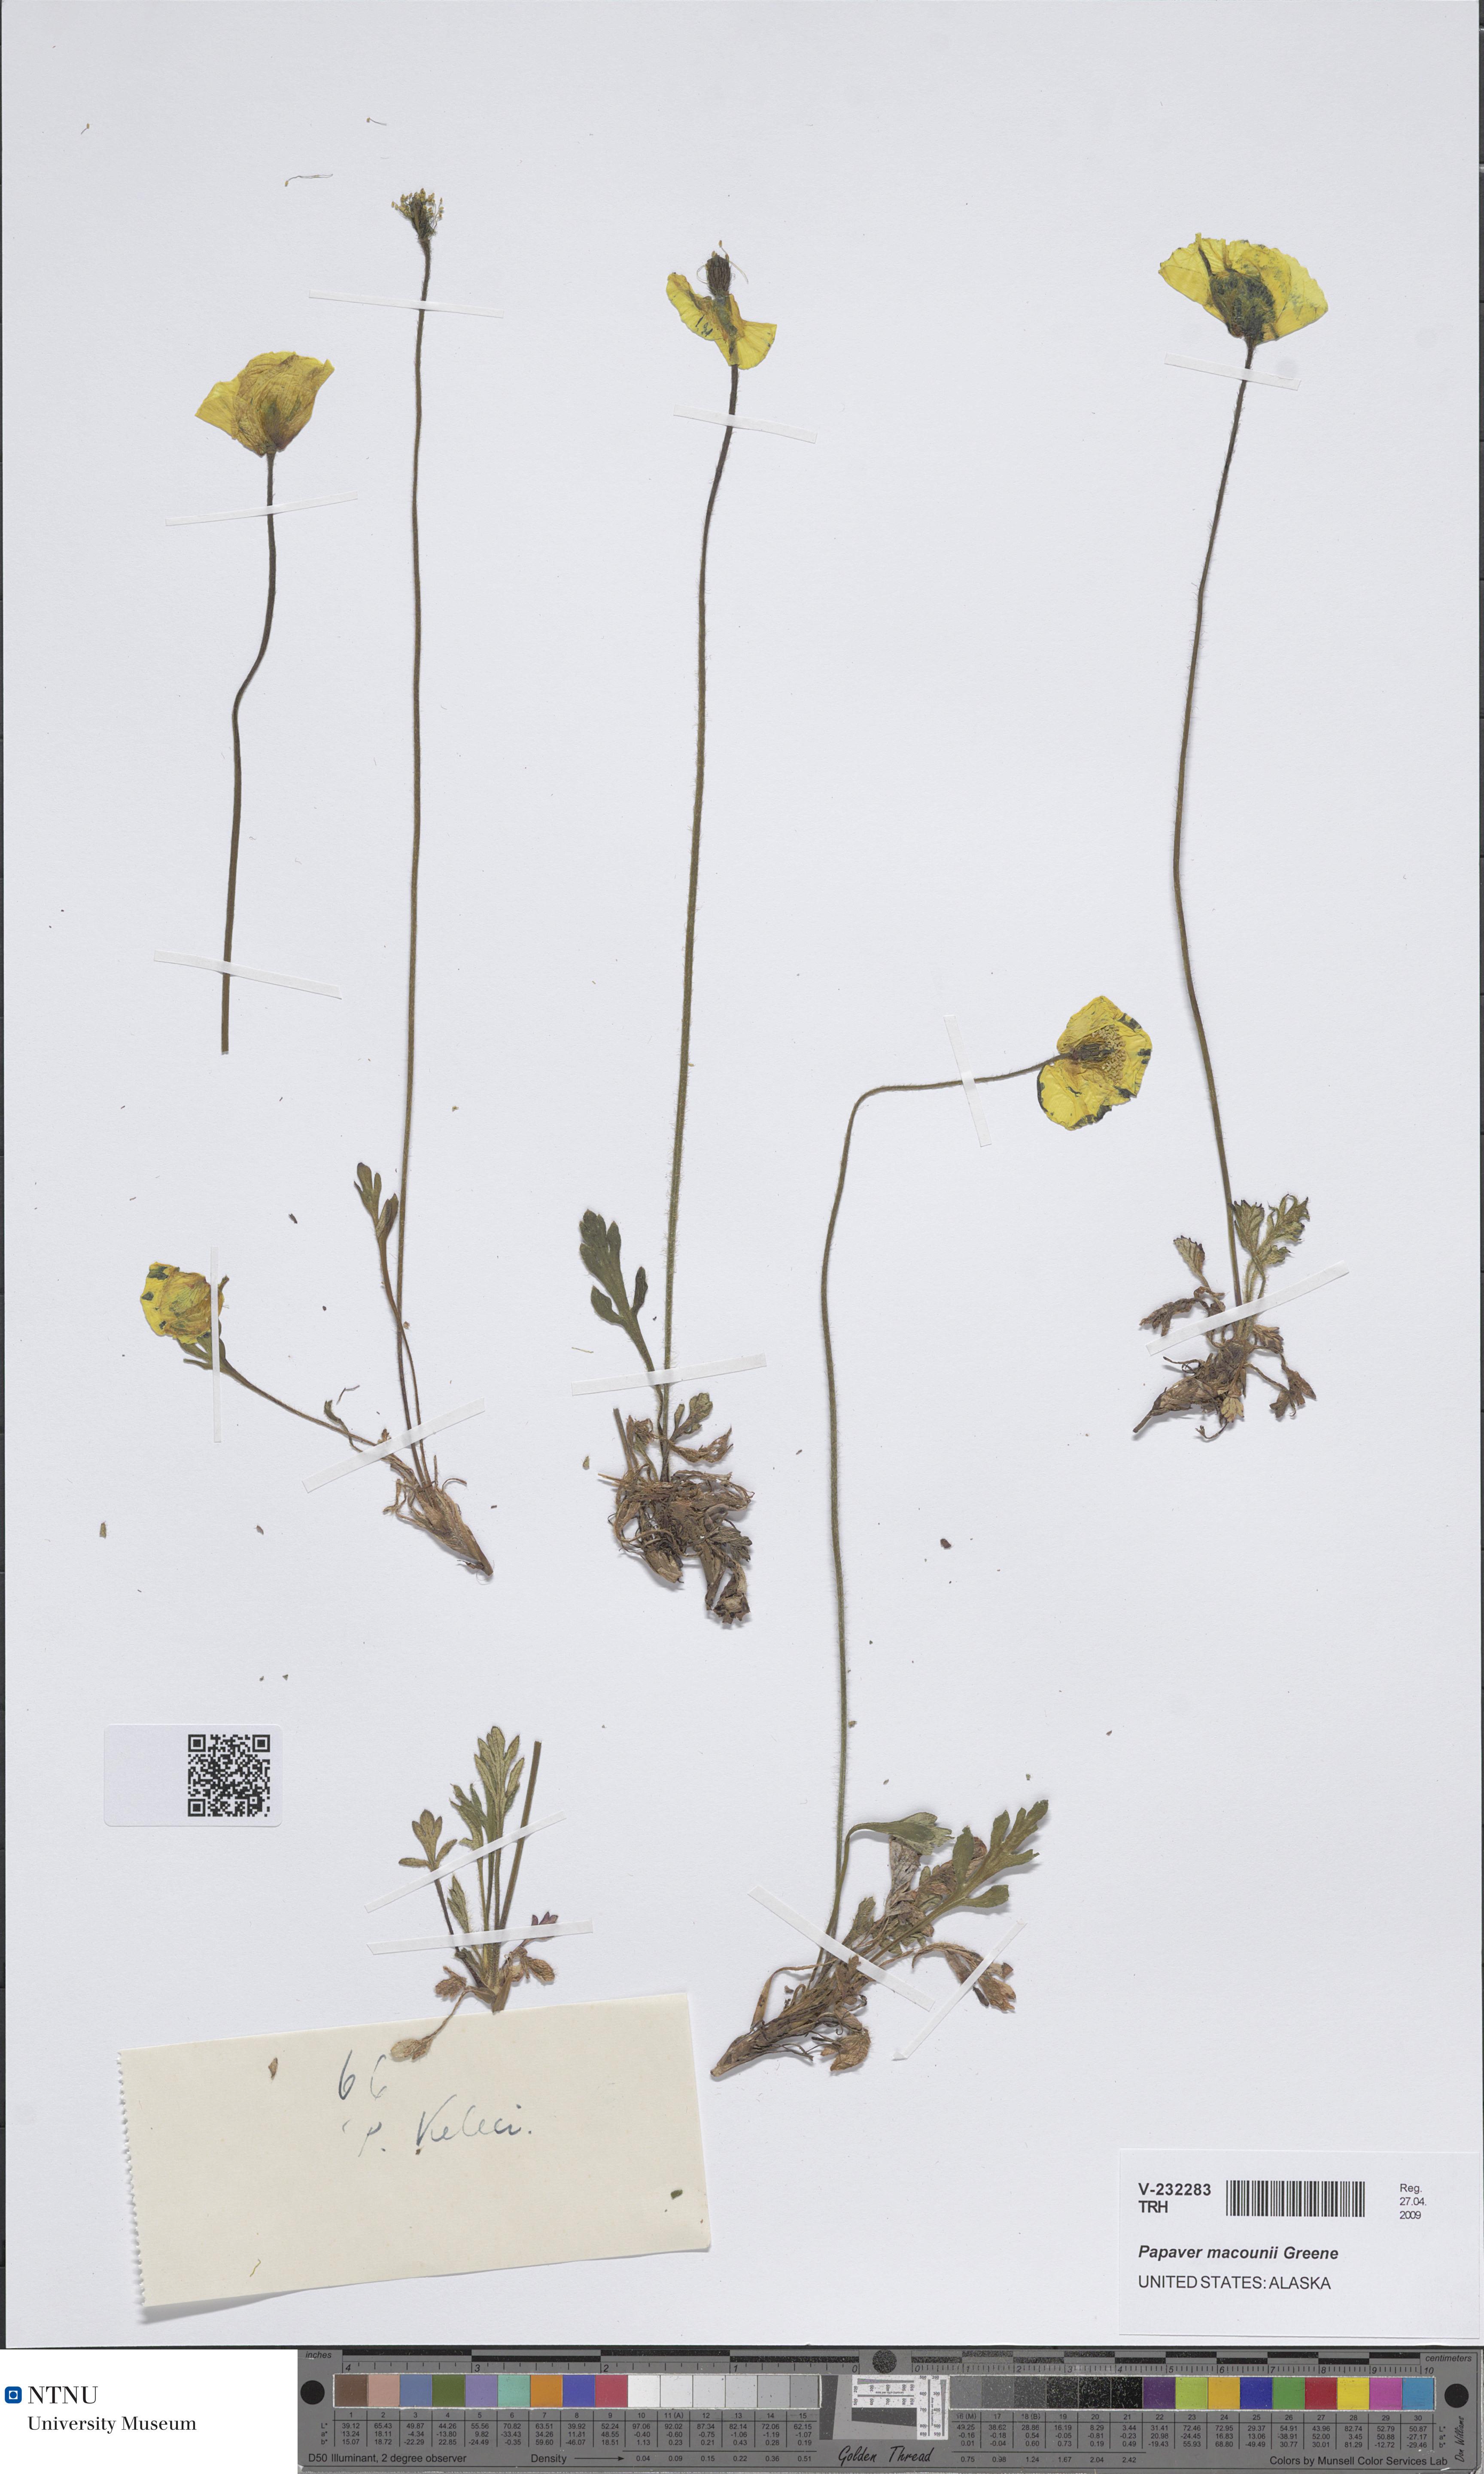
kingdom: Plantae
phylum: Tracheophyta
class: Magnoliopsida
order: Ranunculales
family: Papaveraceae
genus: Papaver
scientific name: Papaver macounii
